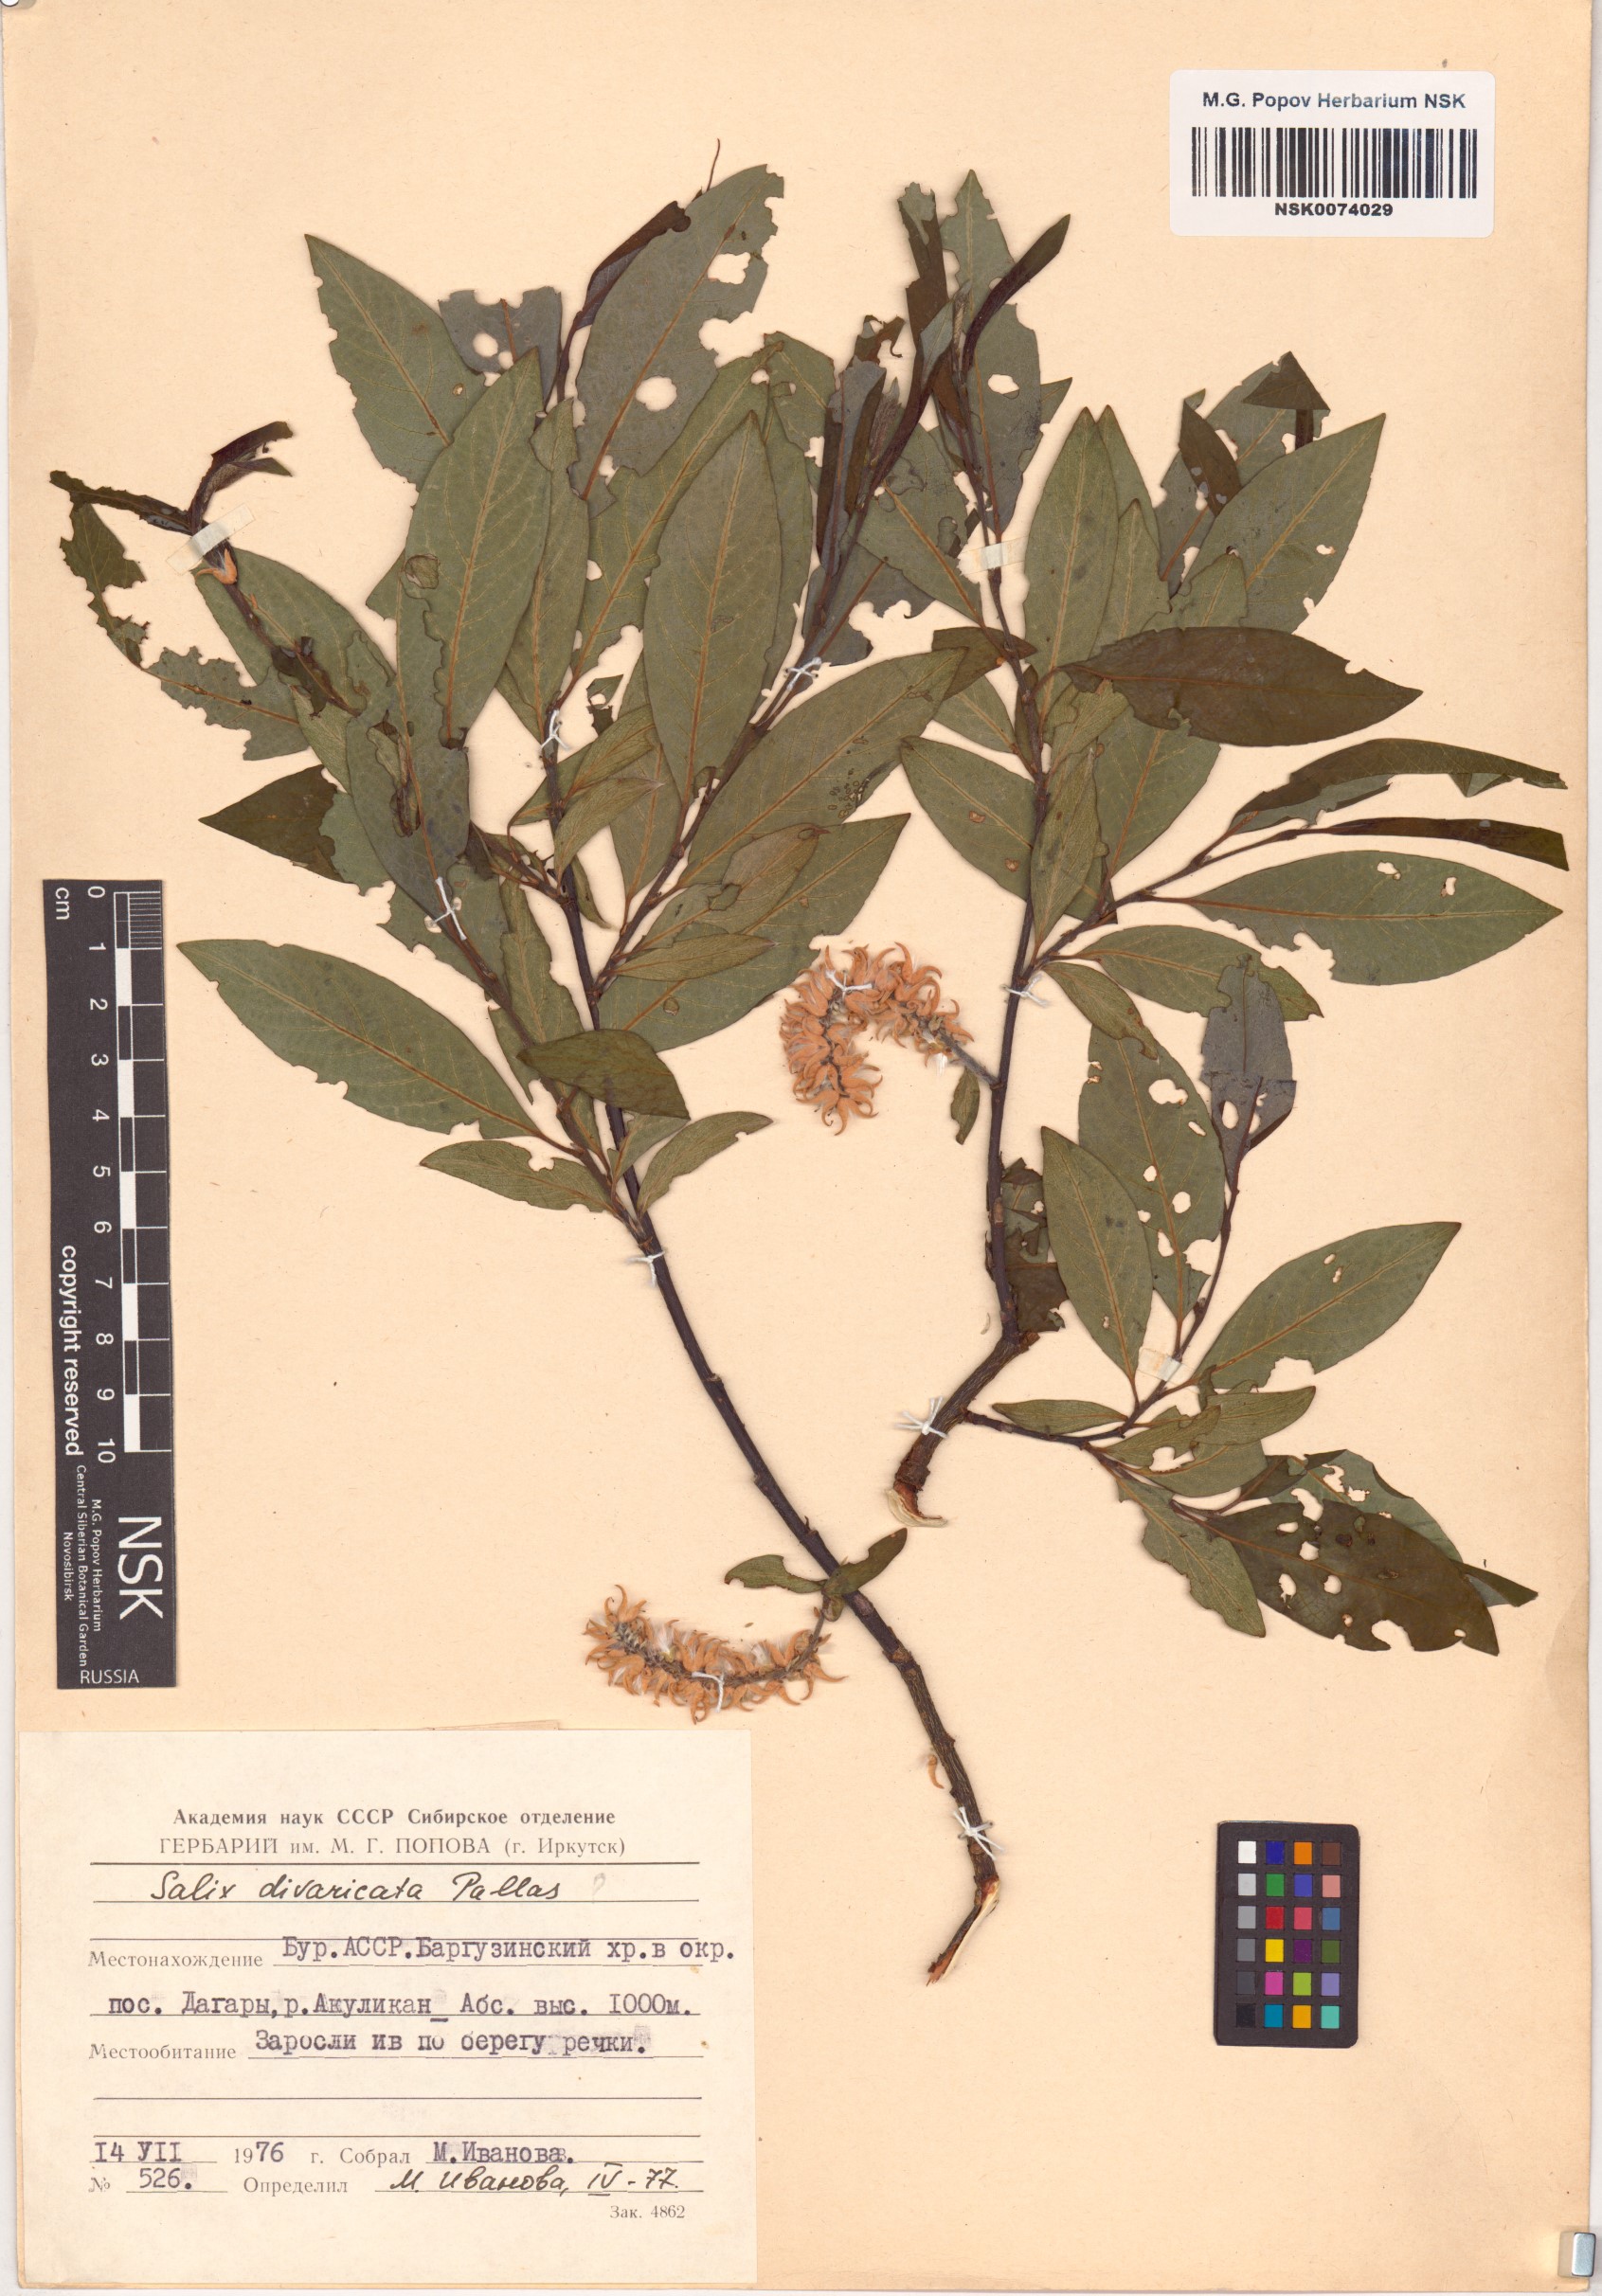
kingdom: Plantae
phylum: Tracheophyta
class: Magnoliopsida
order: Malpighiales
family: Salicaceae
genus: Salix
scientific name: Salix divaricata
